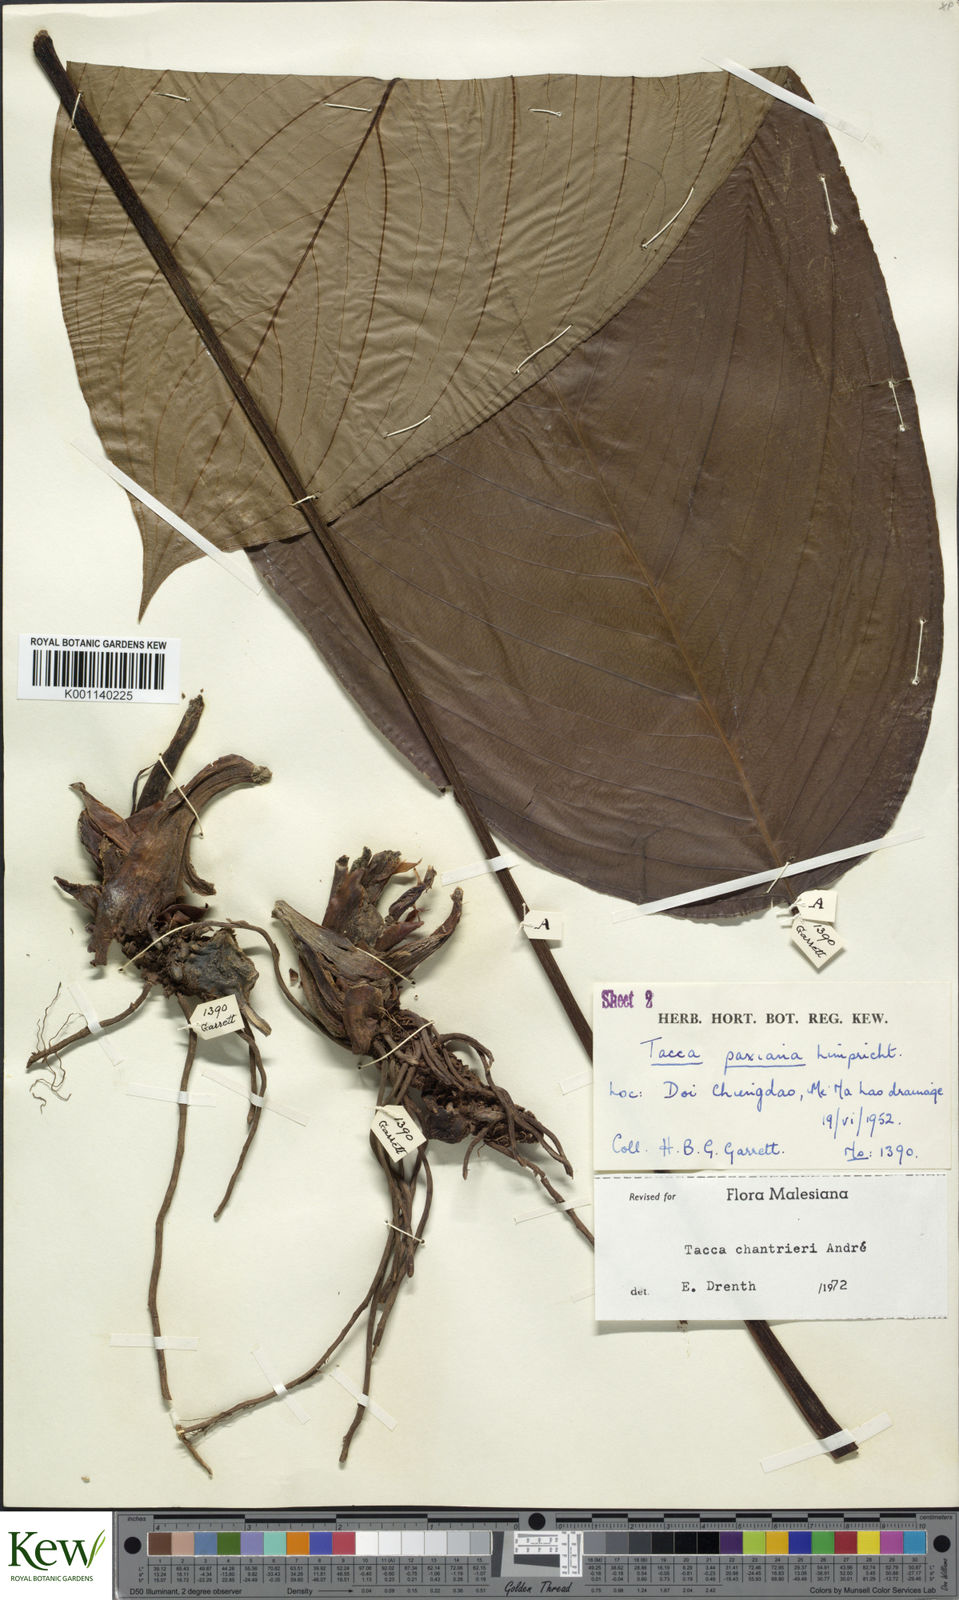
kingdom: Plantae
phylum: Tracheophyta
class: Liliopsida
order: Dioscoreales
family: Dioscoreaceae
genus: Tacca
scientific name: Tacca
